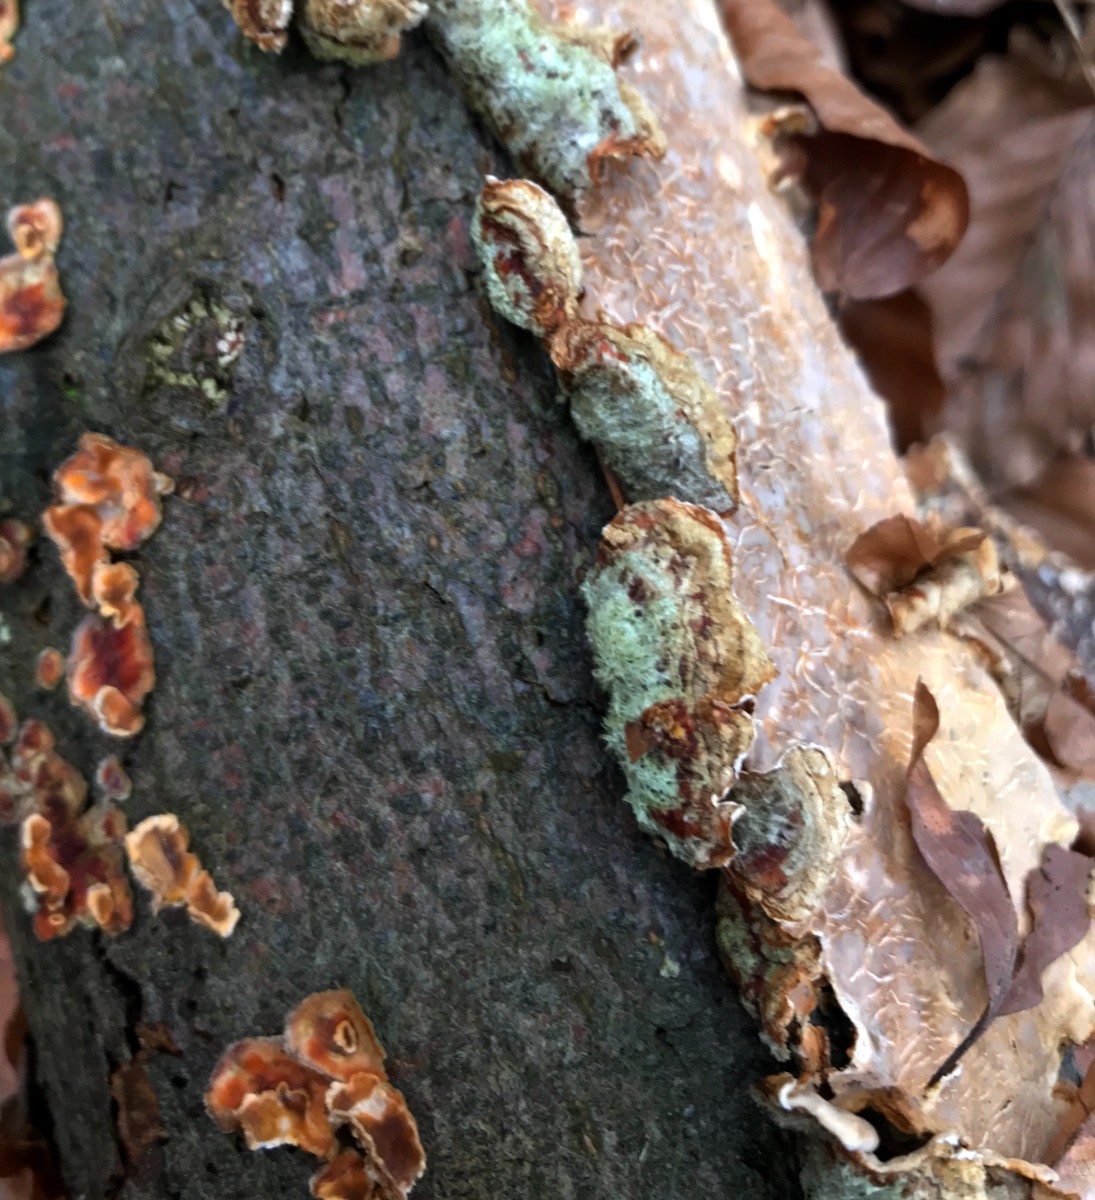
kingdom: Fungi
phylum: Basidiomycota
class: Agaricomycetes
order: Russulales
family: Stereaceae
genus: Stereum
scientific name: Stereum hirsutum
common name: håret lædersvamp
